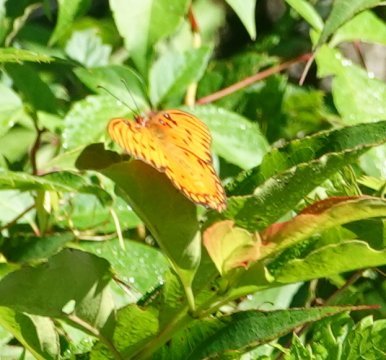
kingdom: Animalia
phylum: Arthropoda
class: Insecta
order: Lepidoptera
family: Nymphalidae
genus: Dione
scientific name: Dione vanillae
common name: Gulf Fritillary
